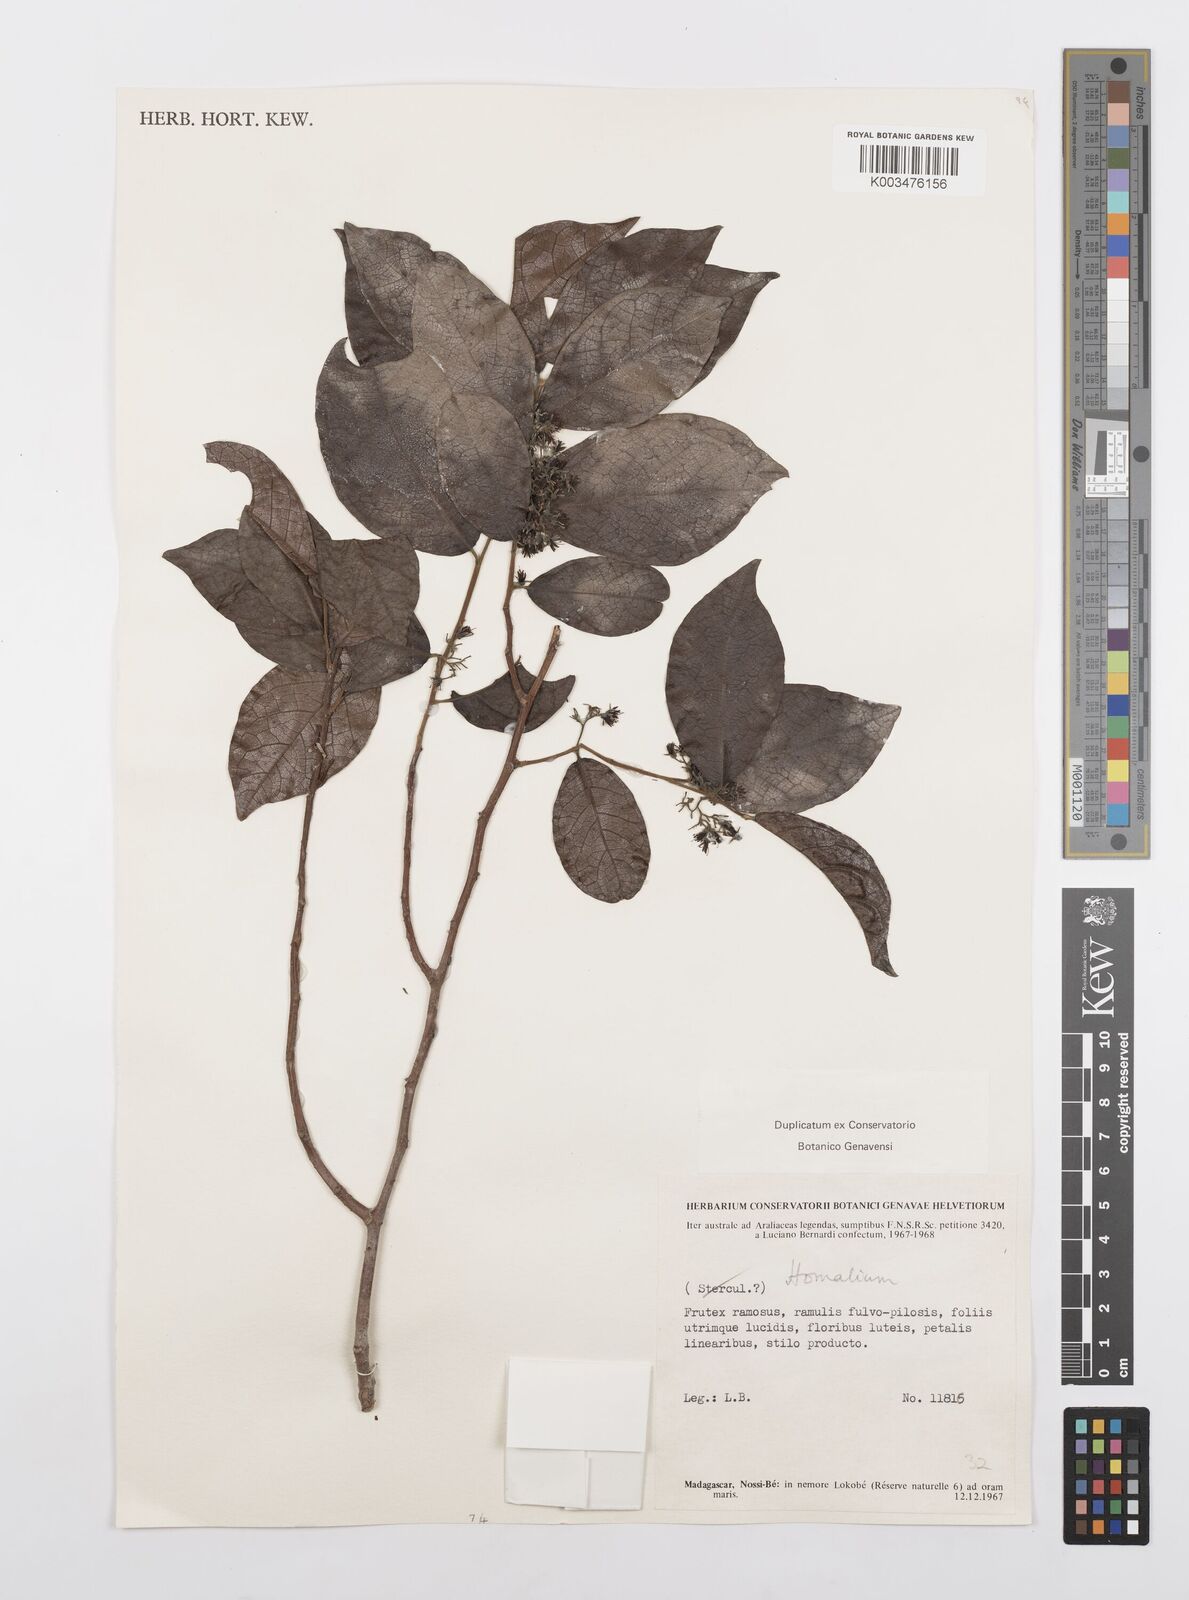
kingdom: Plantae
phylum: Tracheophyta
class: Magnoliopsida
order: Malpighiales
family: Salicaceae
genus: Homalium
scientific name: Homalium
